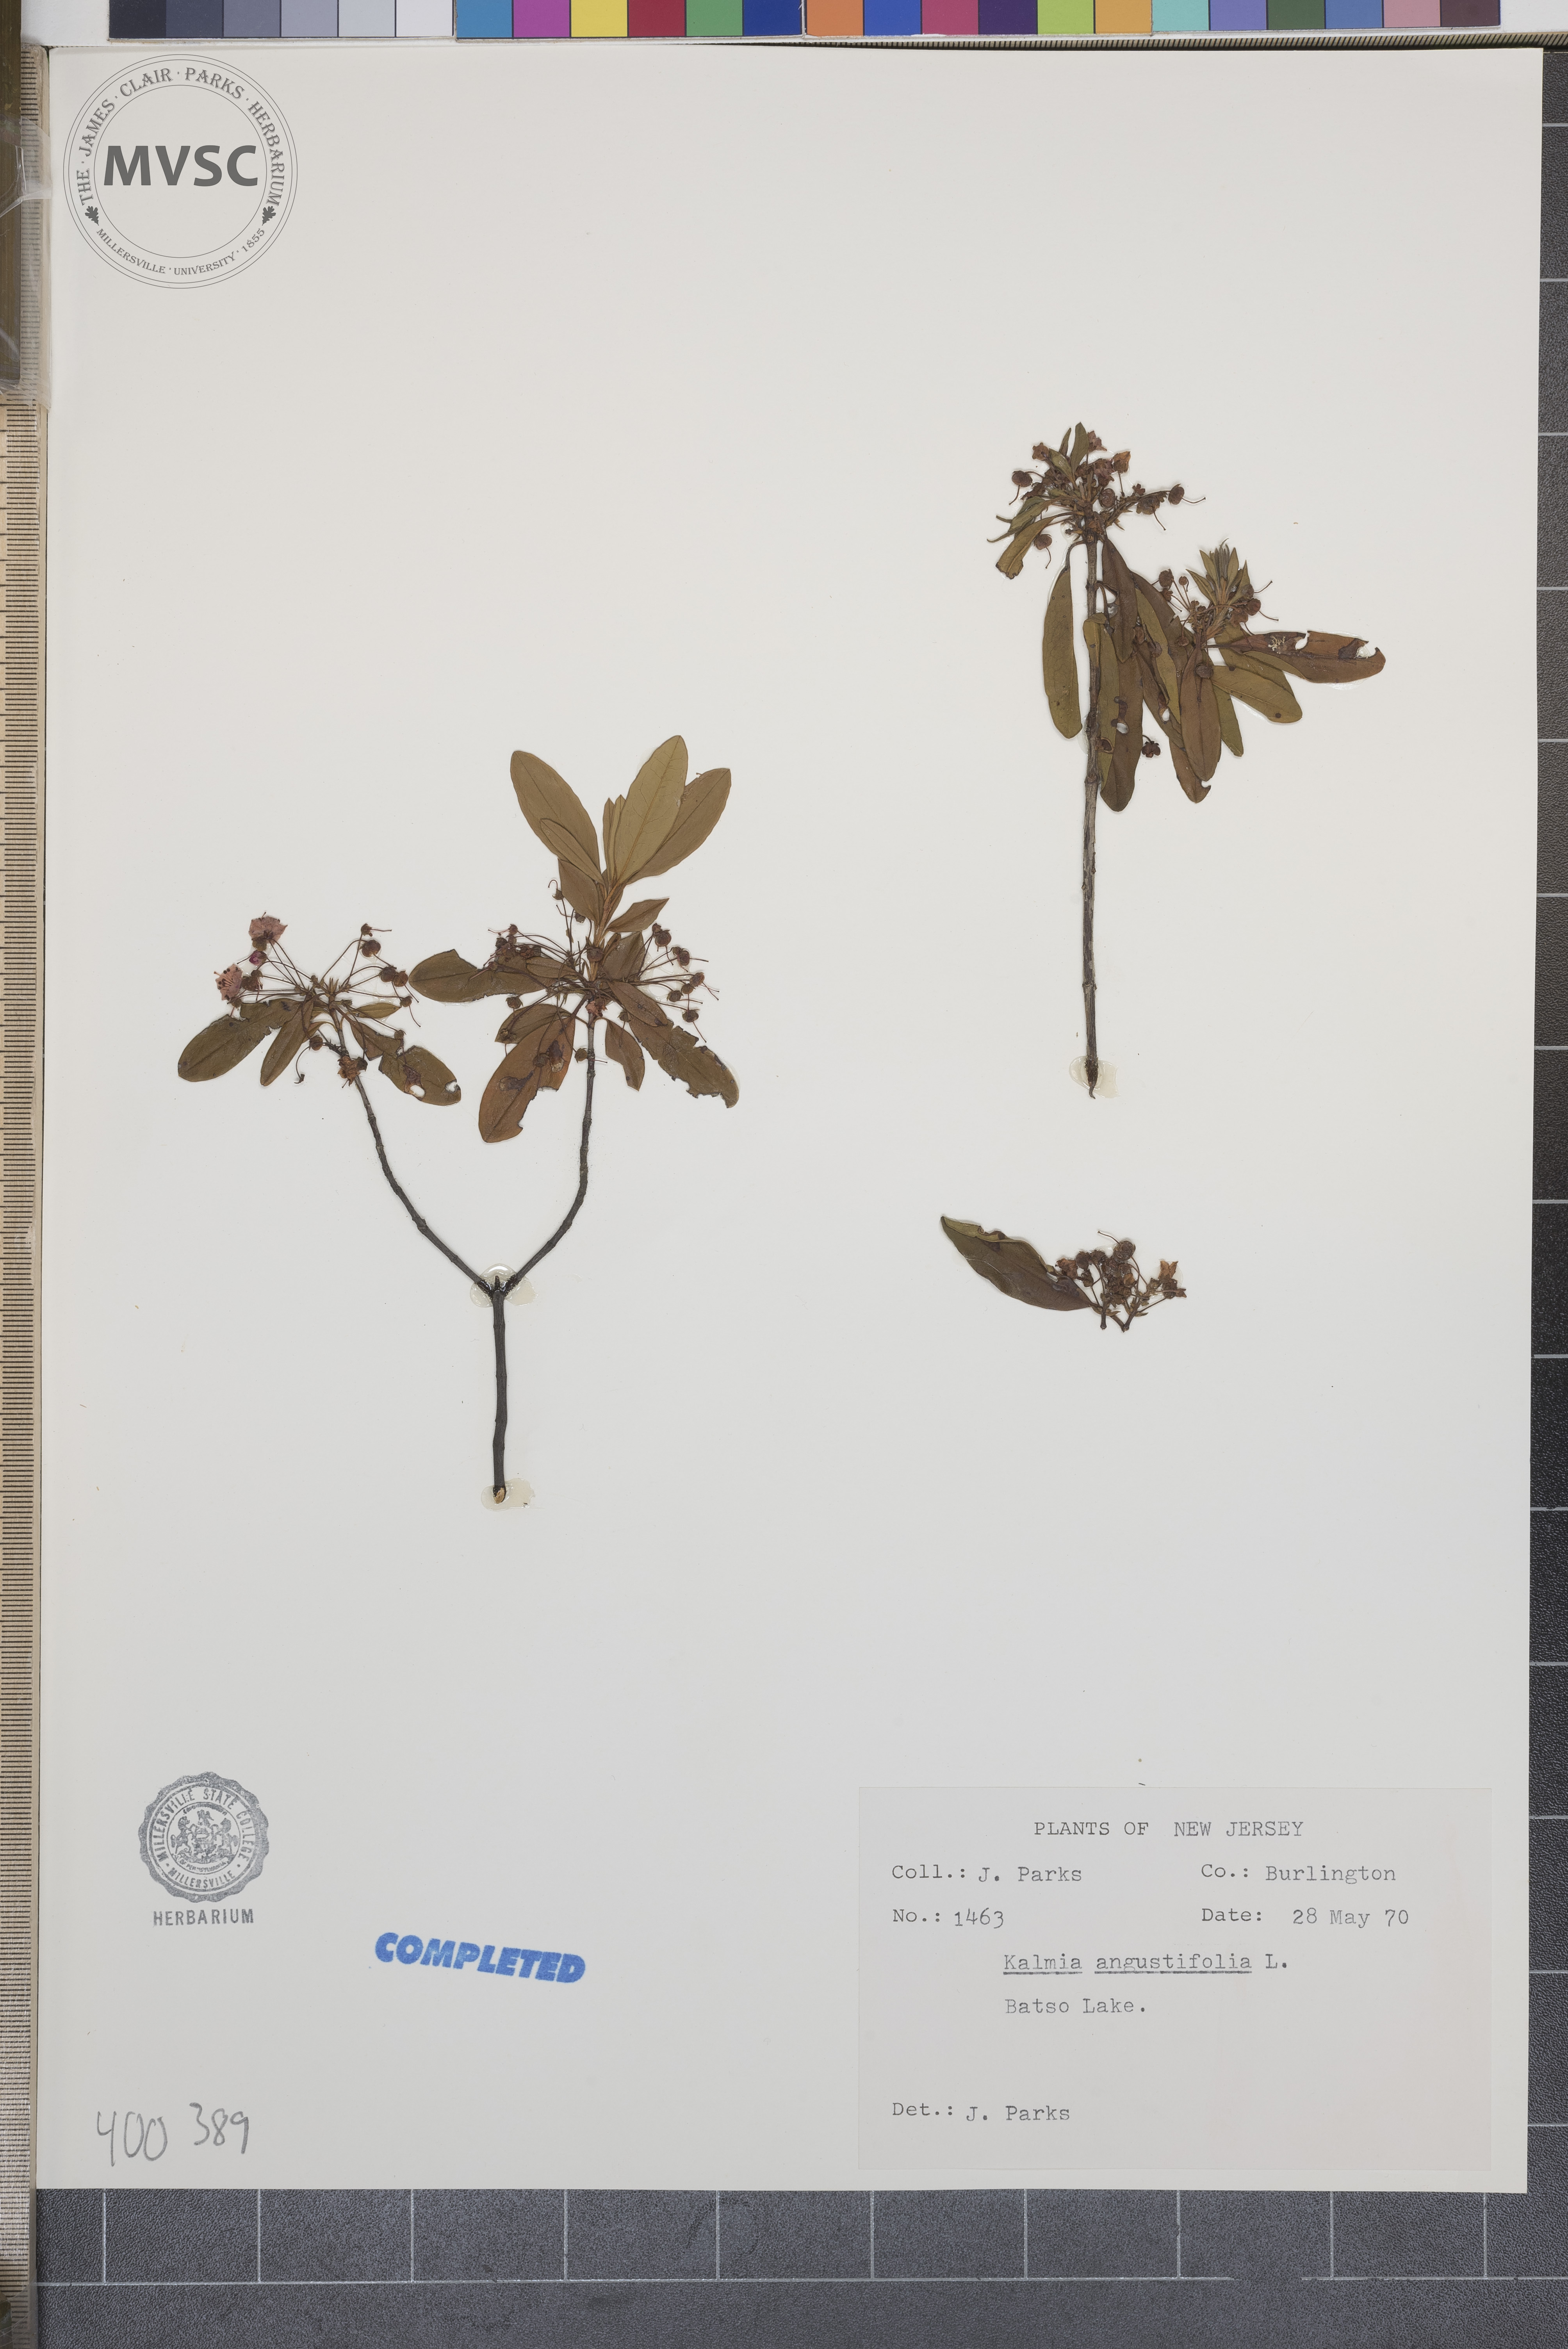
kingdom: Plantae
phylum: Tracheophyta
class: Magnoliopsida
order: Ericales
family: Ericaceae
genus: Kalmia
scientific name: Kalmia angustifolia
